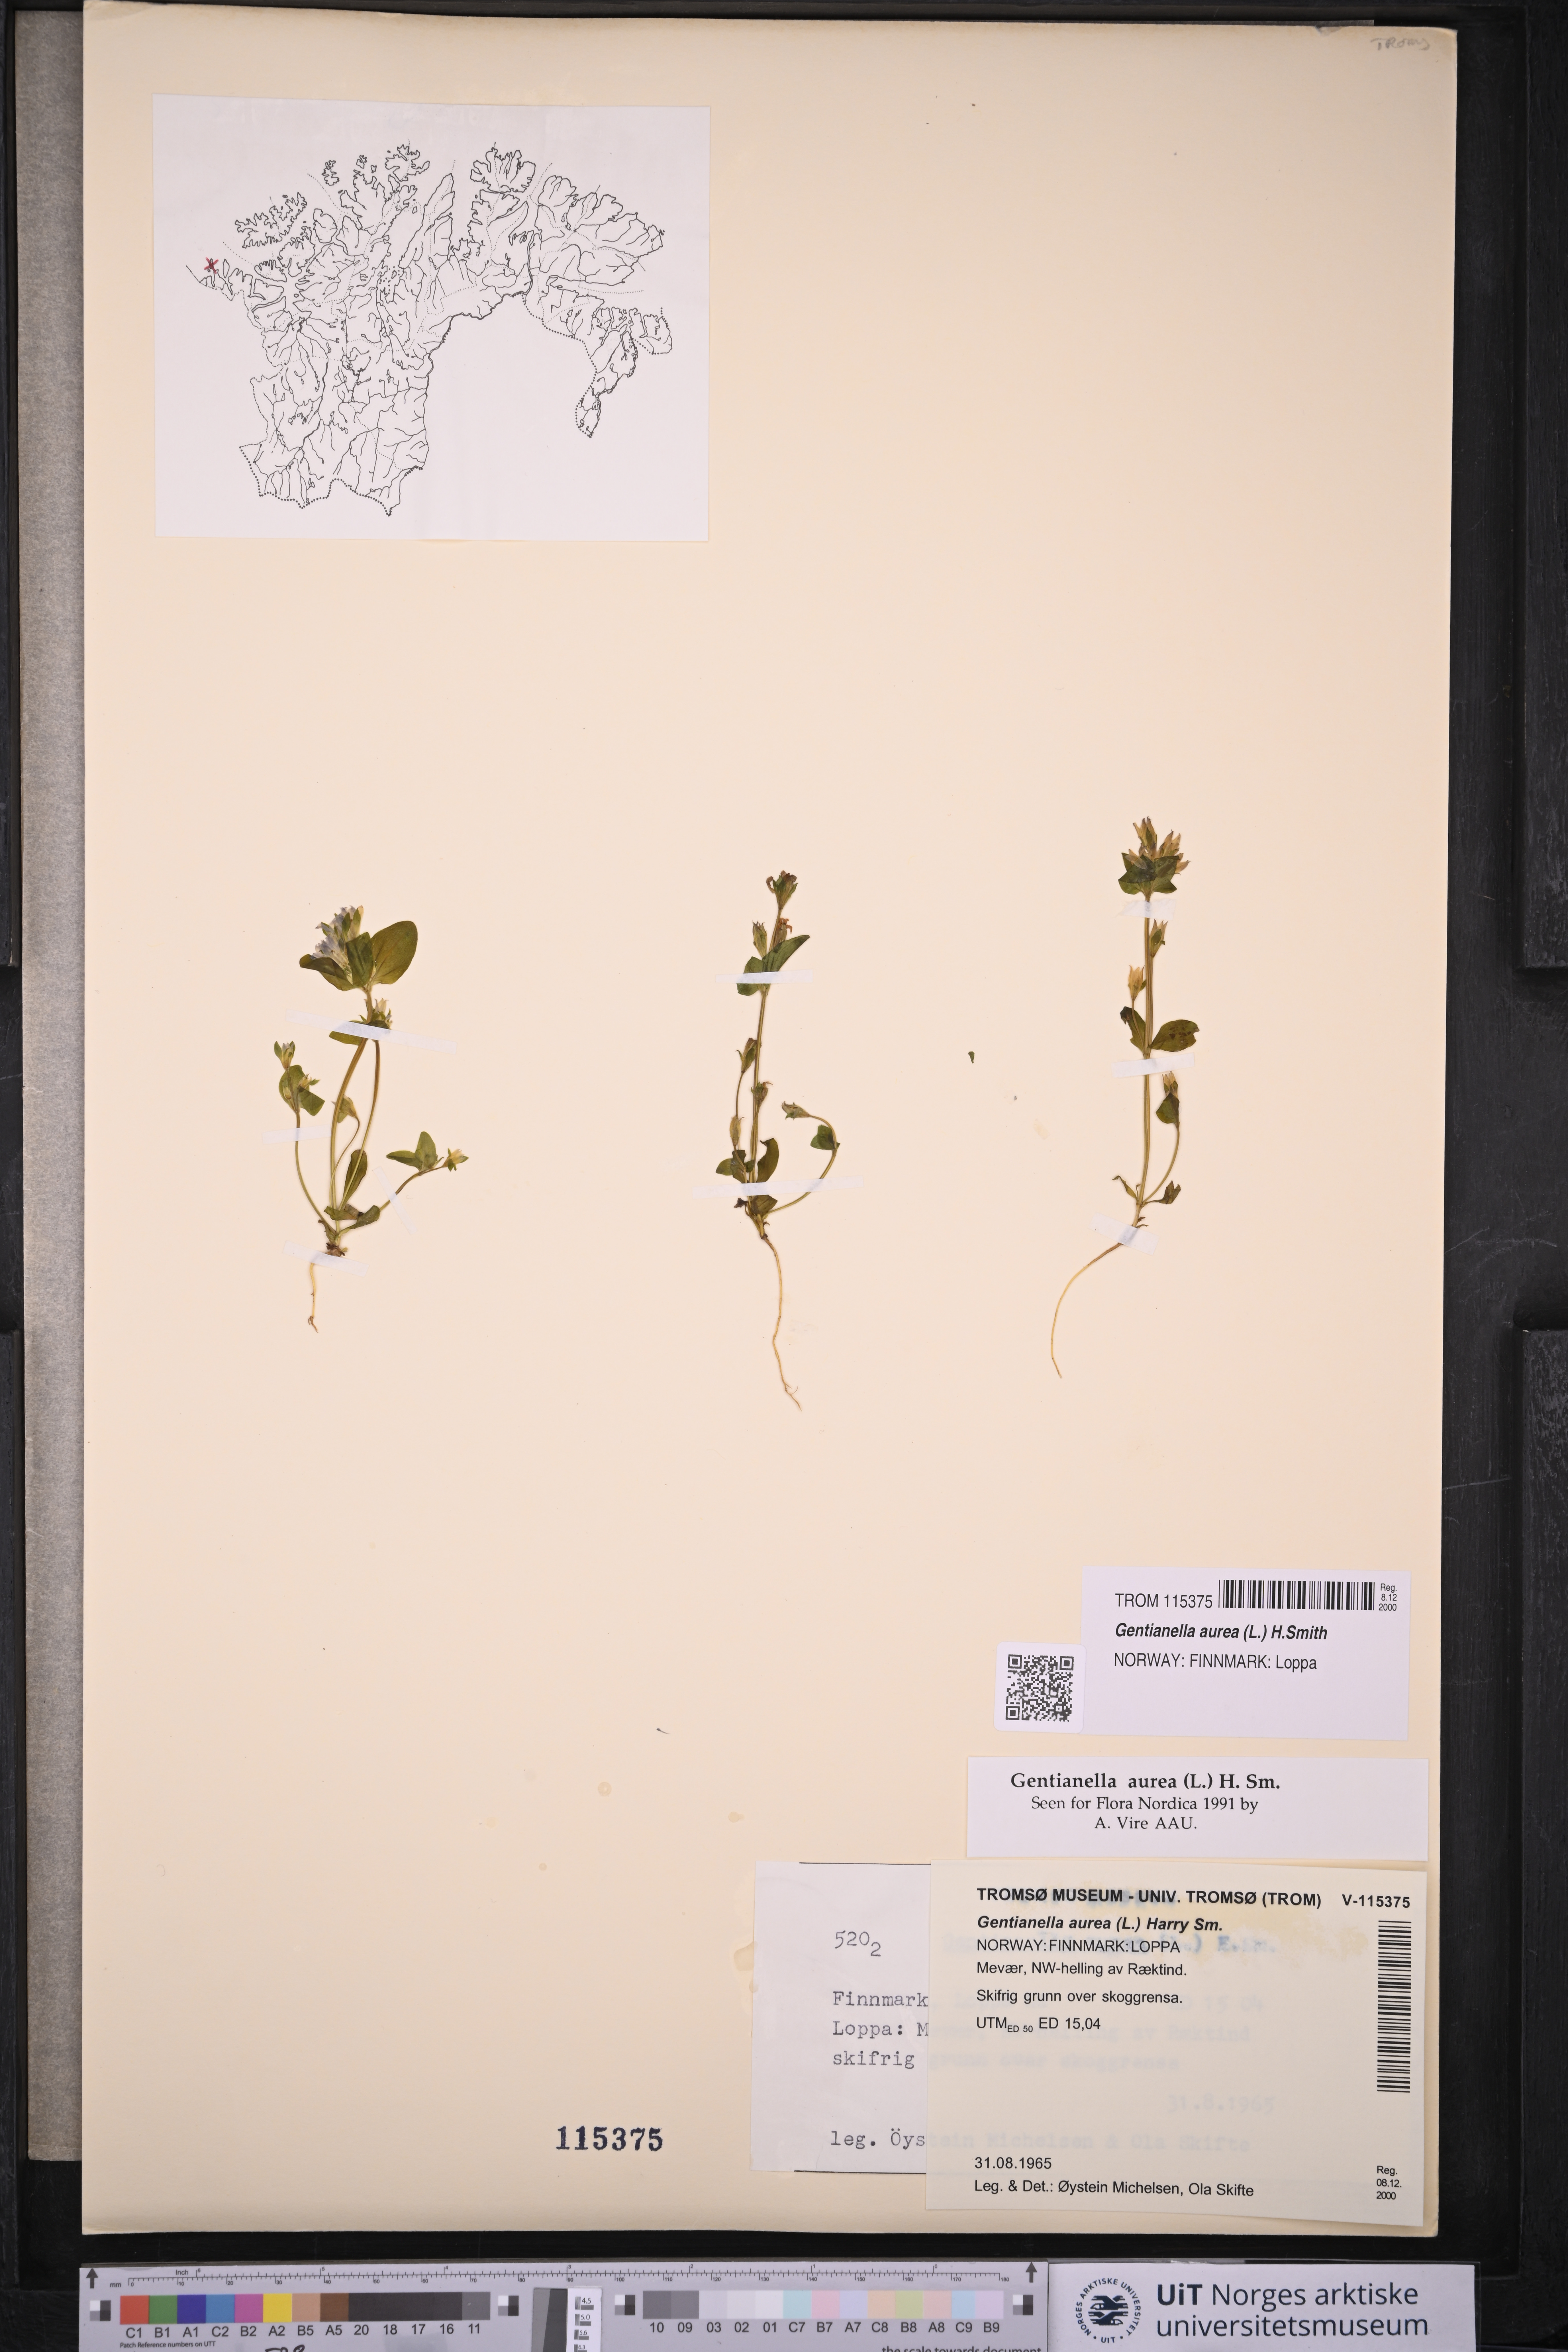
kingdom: Plantae
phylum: Tracheophyta
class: Magnoliopsida
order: Gentianales
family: Gentianaceae
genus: Gentianella
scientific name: Gentianella aurea
